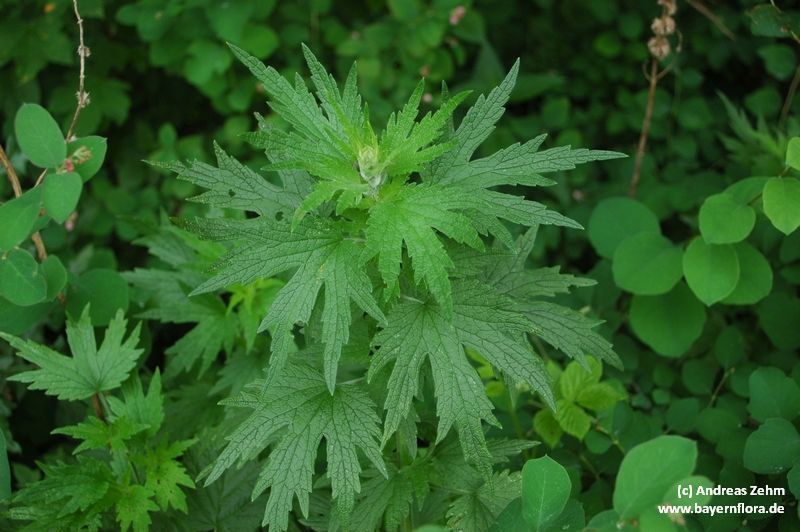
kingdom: Plantae
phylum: Tracheophyta
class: Magnoliopsida
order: Lamiales
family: Lamiaceae
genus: Leonurus
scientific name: Leonurus cardiaca
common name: Motherwort
